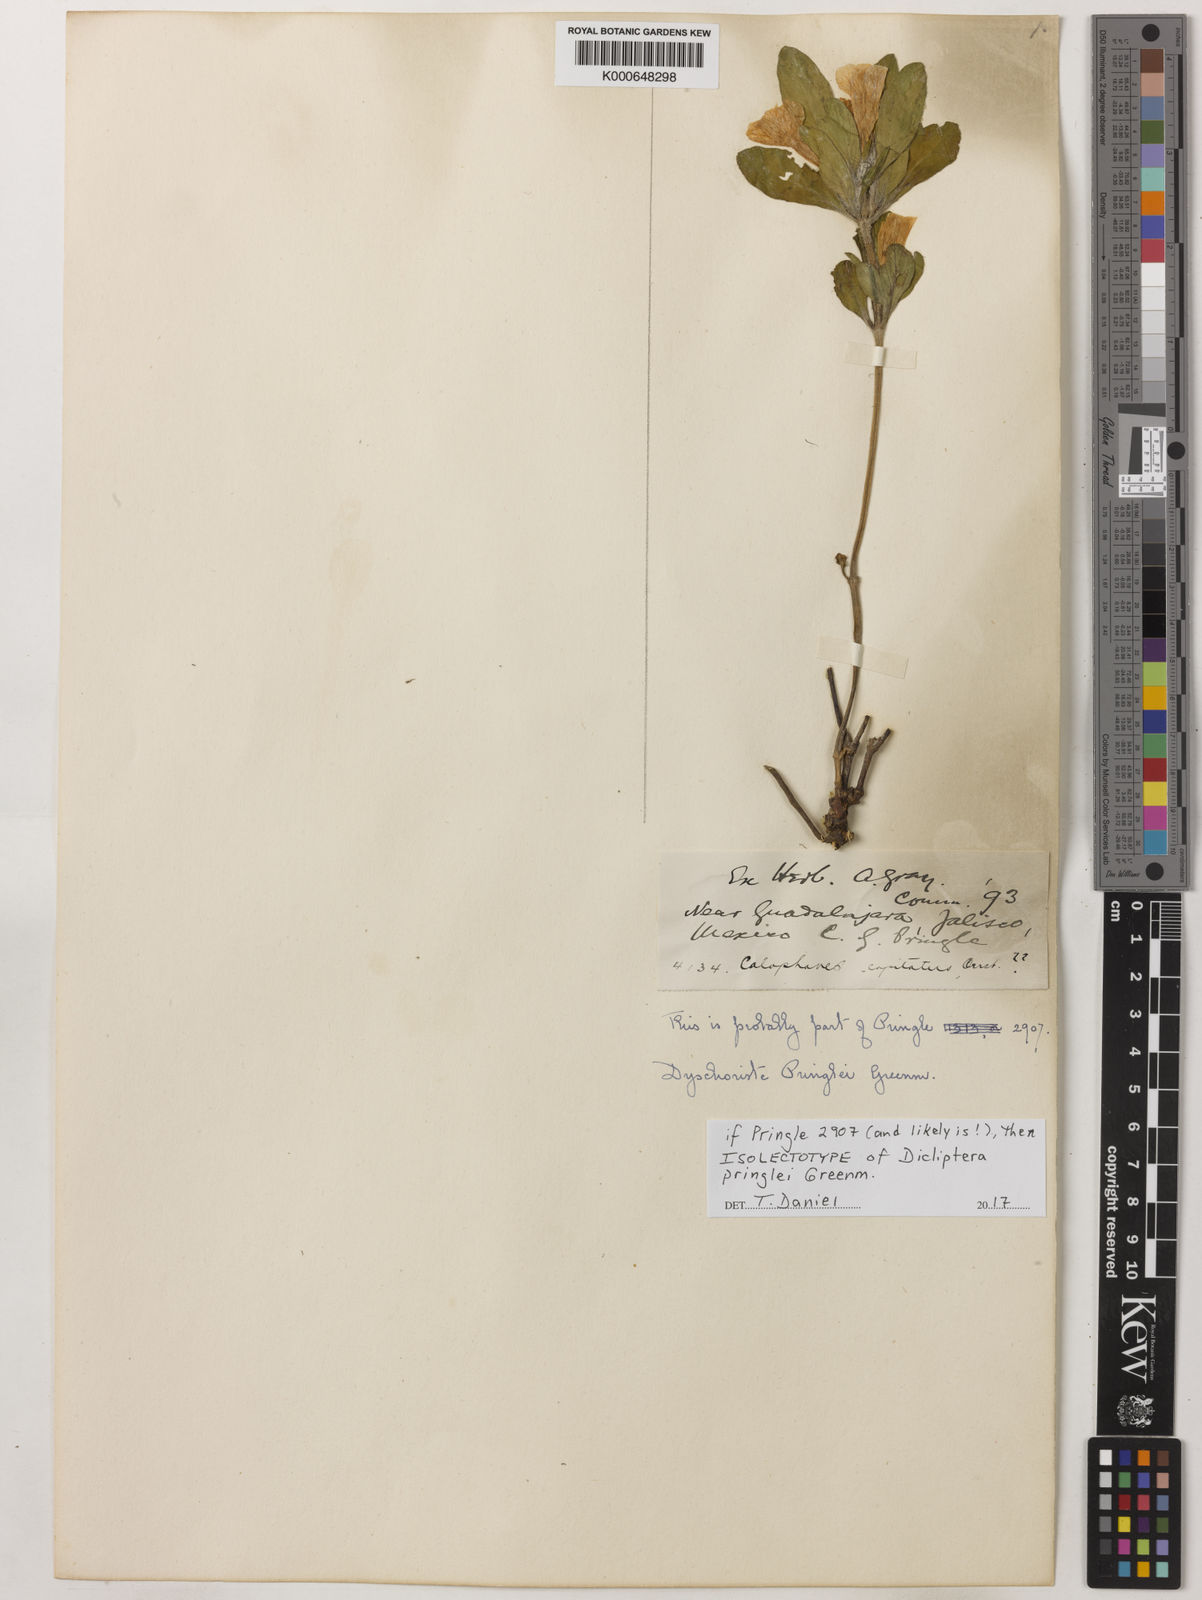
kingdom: Plantae
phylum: Tracheophyta
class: Magnoliopsida
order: Lamiales
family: Acanthaceae
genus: Dicliptera
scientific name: Dicliptera thlaspioides
